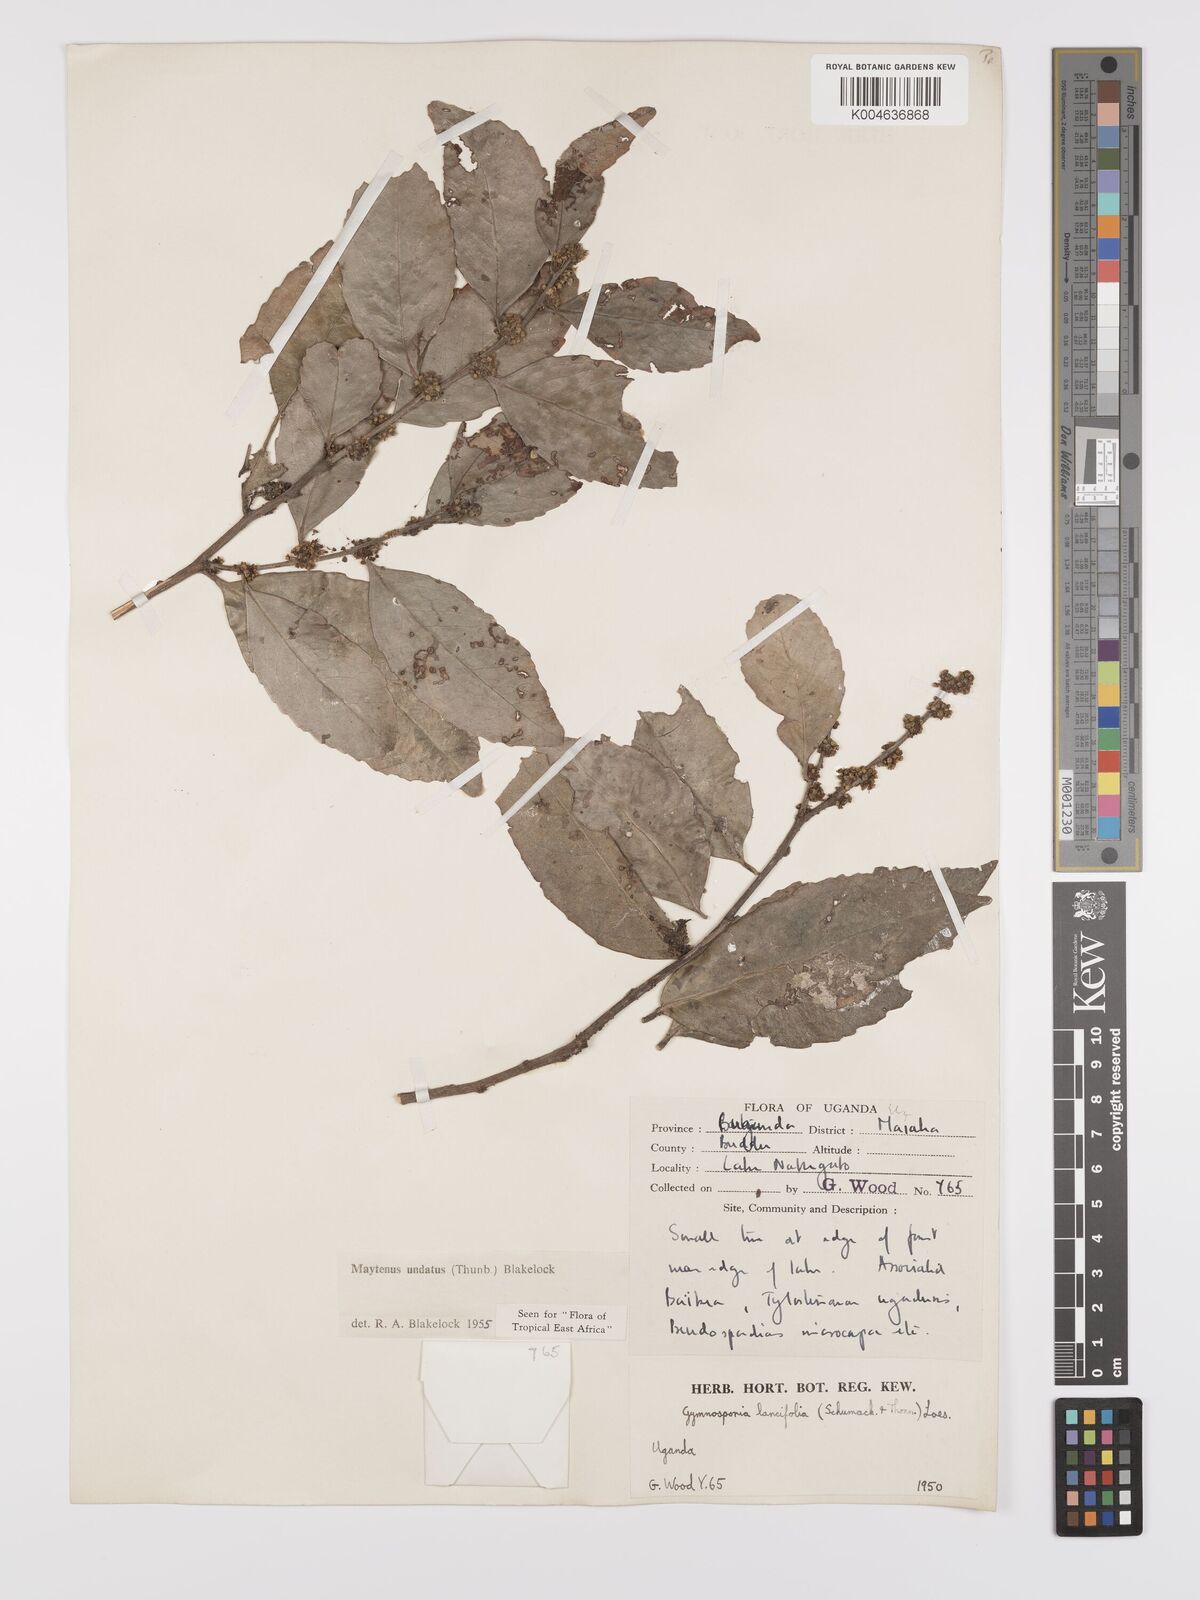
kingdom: Plantae
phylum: Tracheophyta
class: Magnoliopsida
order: Celastrales
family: Celastraceae
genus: Gymnosporia
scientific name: Gymnosporia undata
